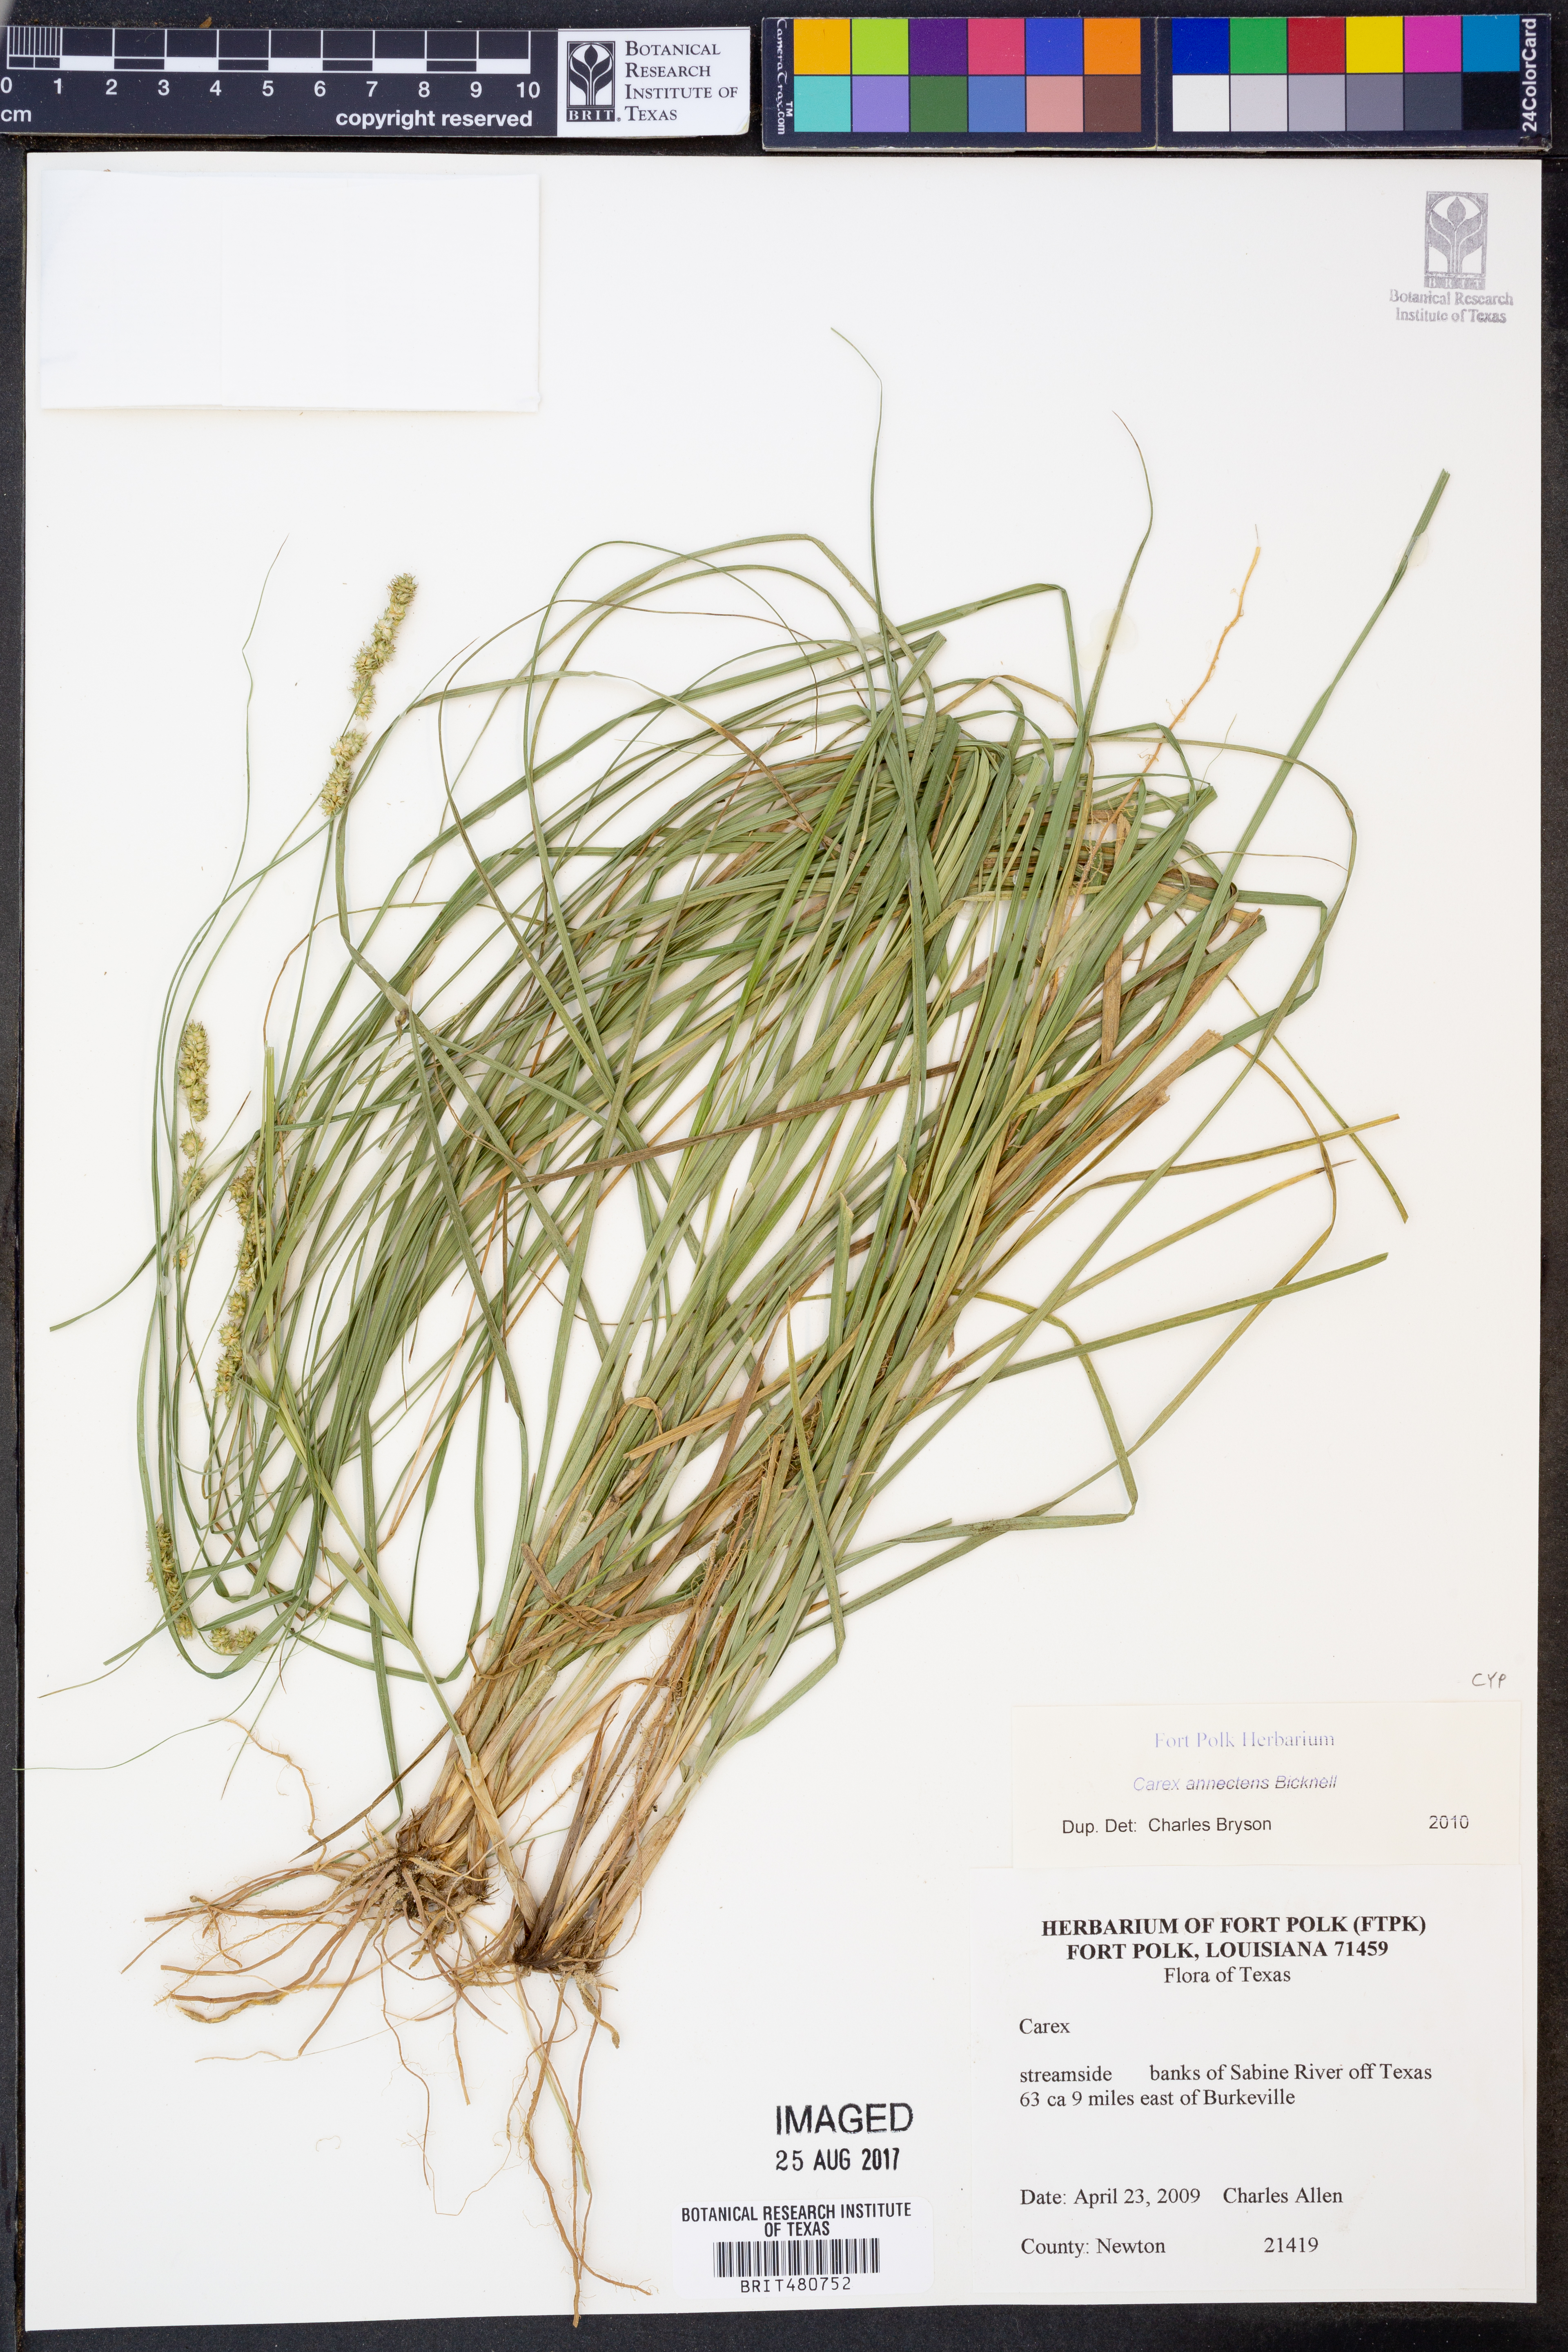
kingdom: Plantae
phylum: Tracheophyta
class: Liliopsida
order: Poales
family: Cyperaceae
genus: Carex
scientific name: Carex annectens
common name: Large fox sedge
